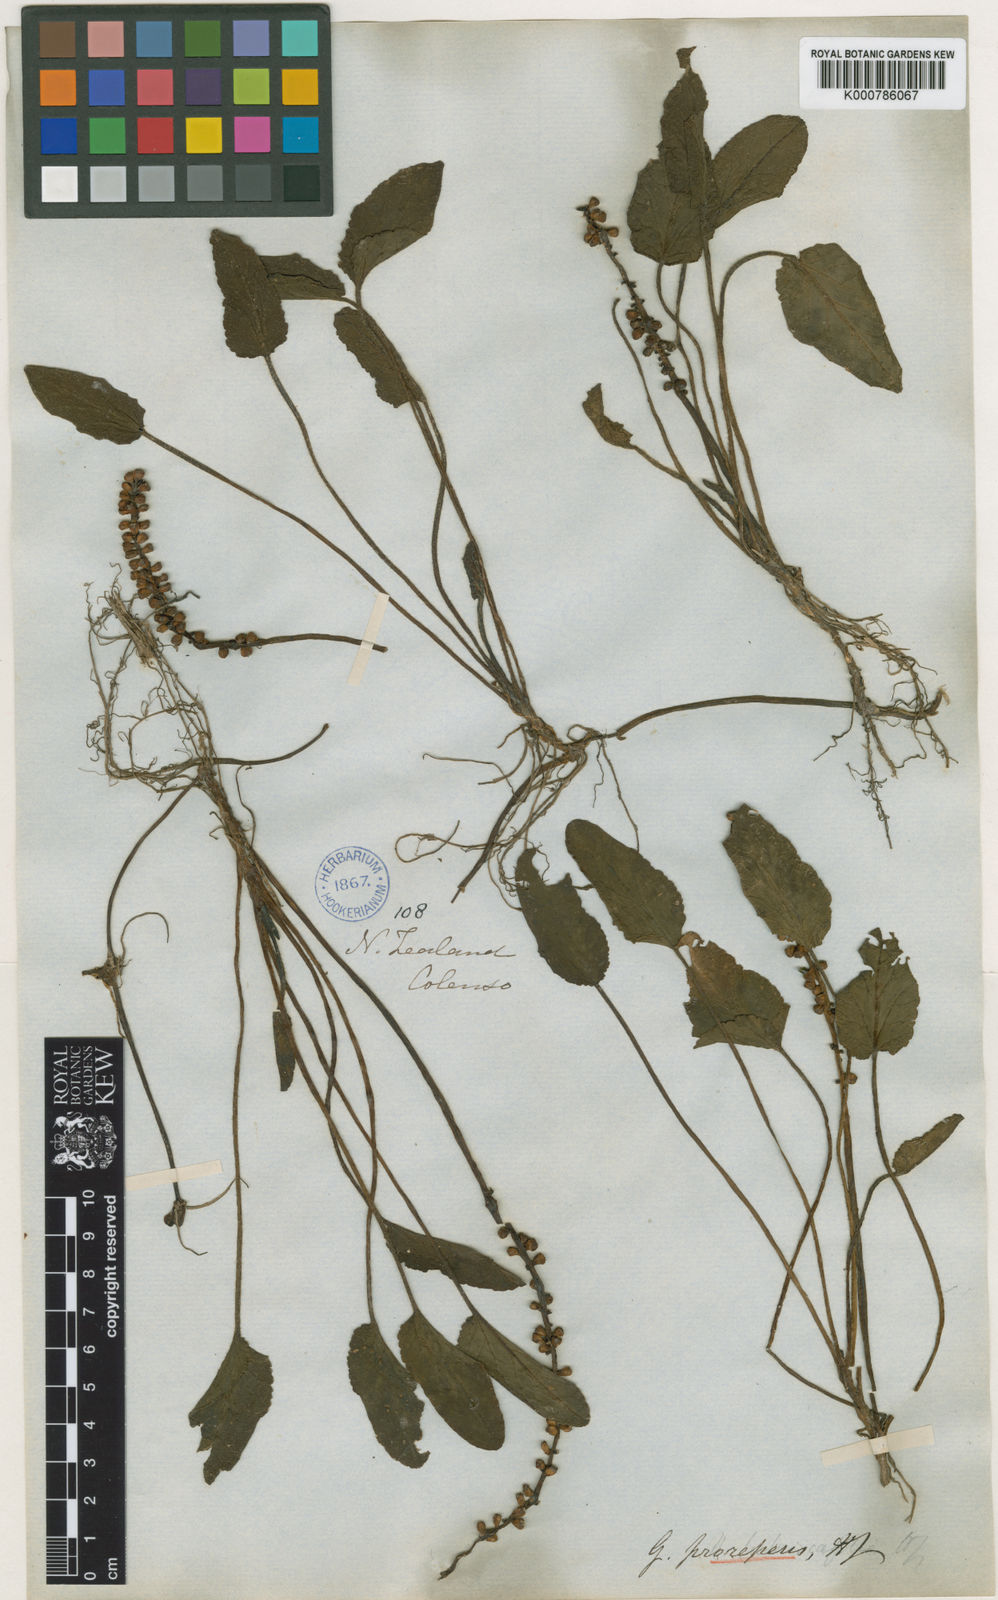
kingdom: Plantae
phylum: Tracheophyta
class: Magnoliopsida
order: Gunnerales
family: Gunneraceae
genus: Gunnera
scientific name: Gunnera prorepens
